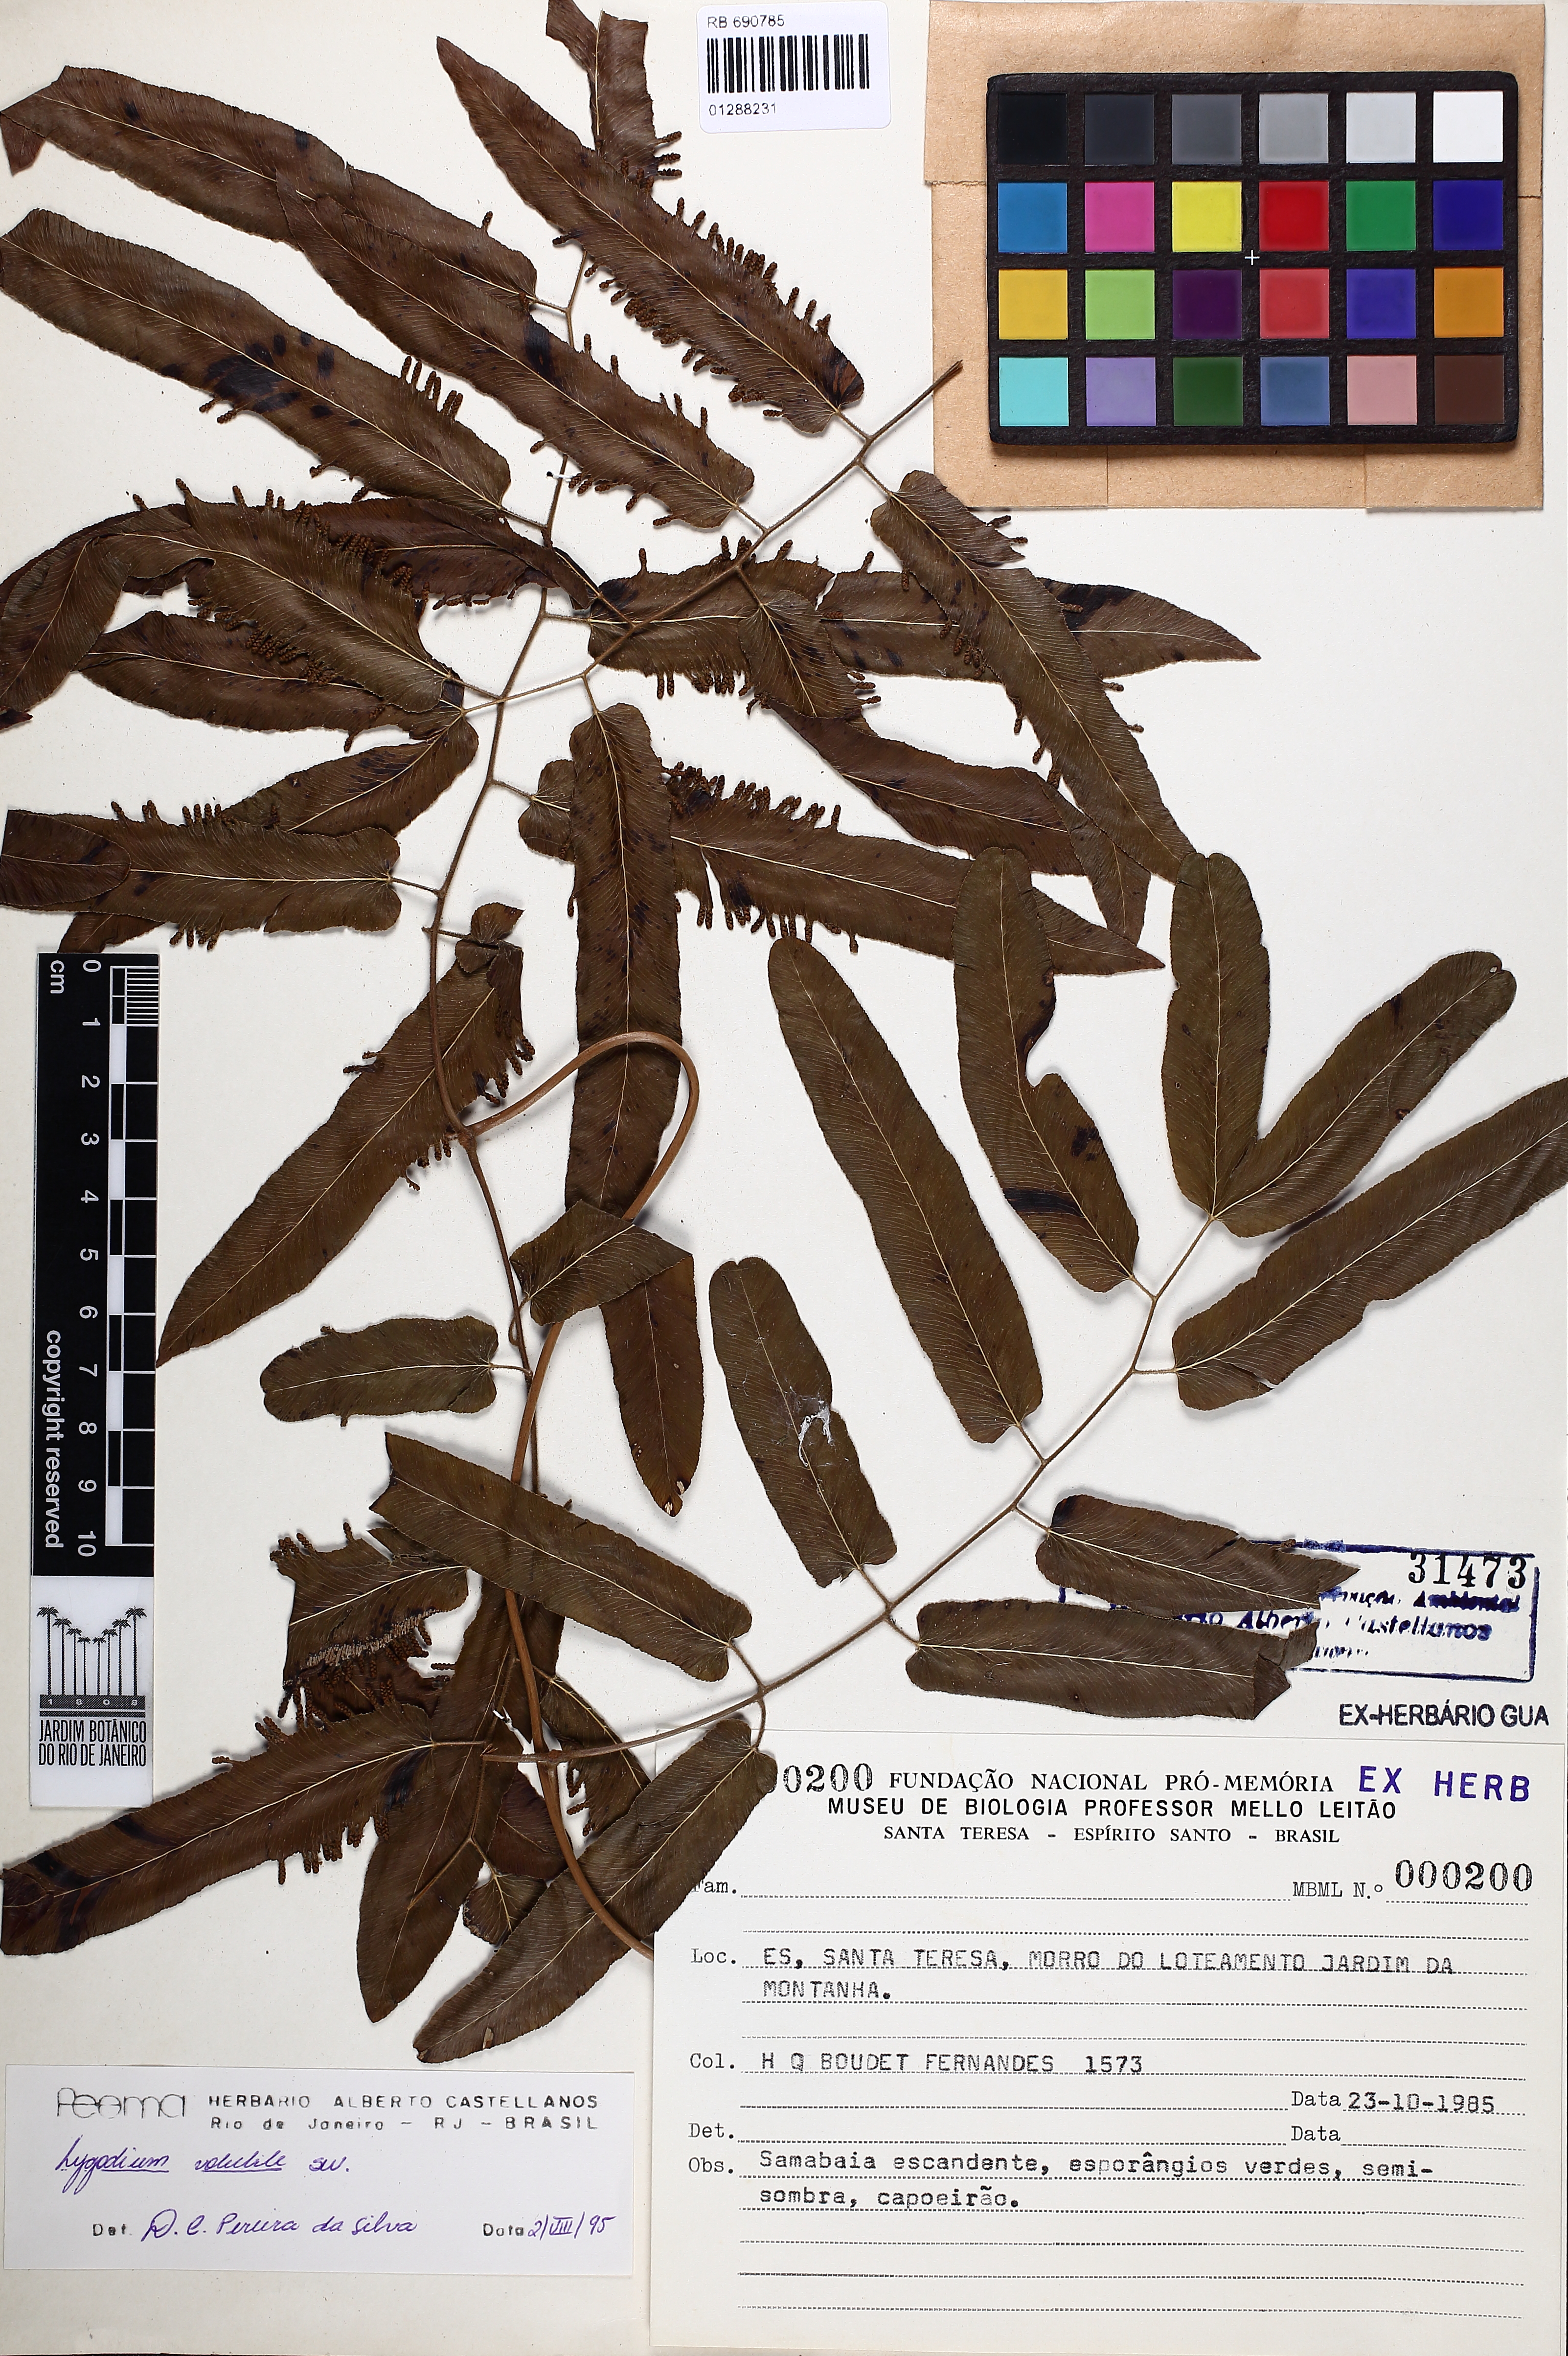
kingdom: Plantae
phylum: Tracheophyta
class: Polypodiopsida
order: Schizaeales
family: Lygodiaceae
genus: Lygodium
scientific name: Lygodium volubile
